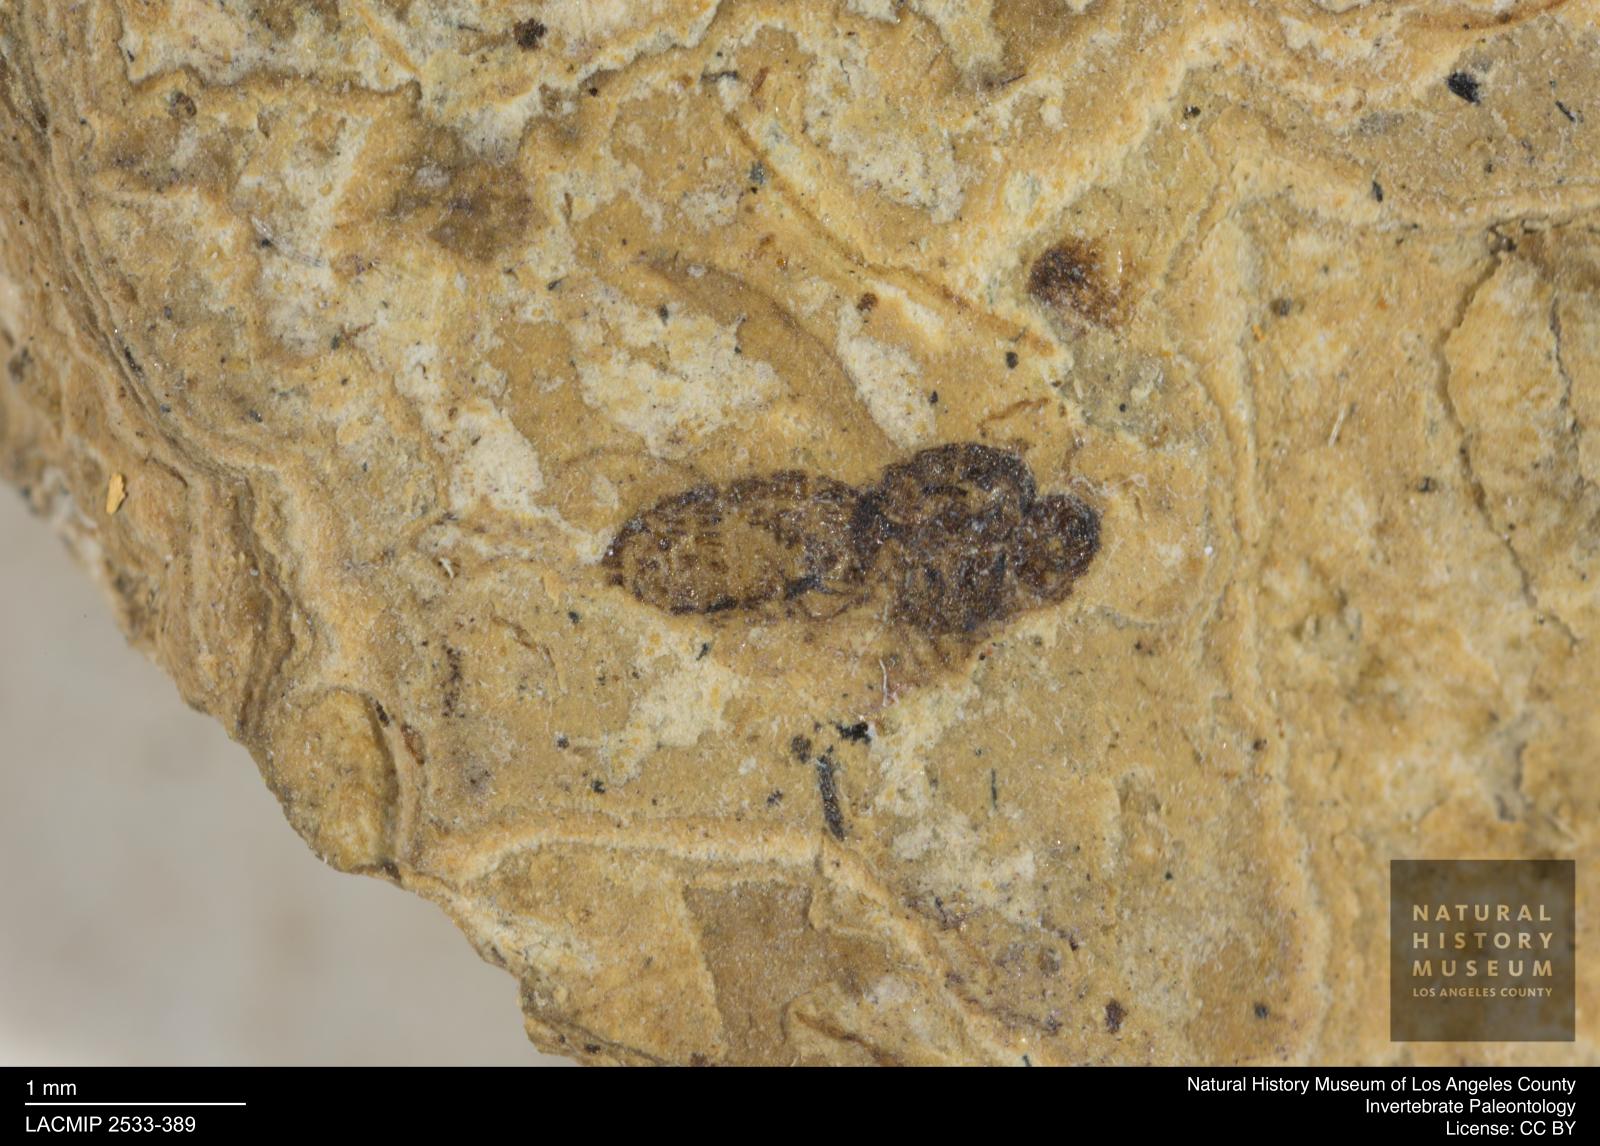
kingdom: Animalia
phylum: Arthropoda
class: Insecta
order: Diptera
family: Ceratopogonidae
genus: Culicoides
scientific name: Culicoides obscuratus
